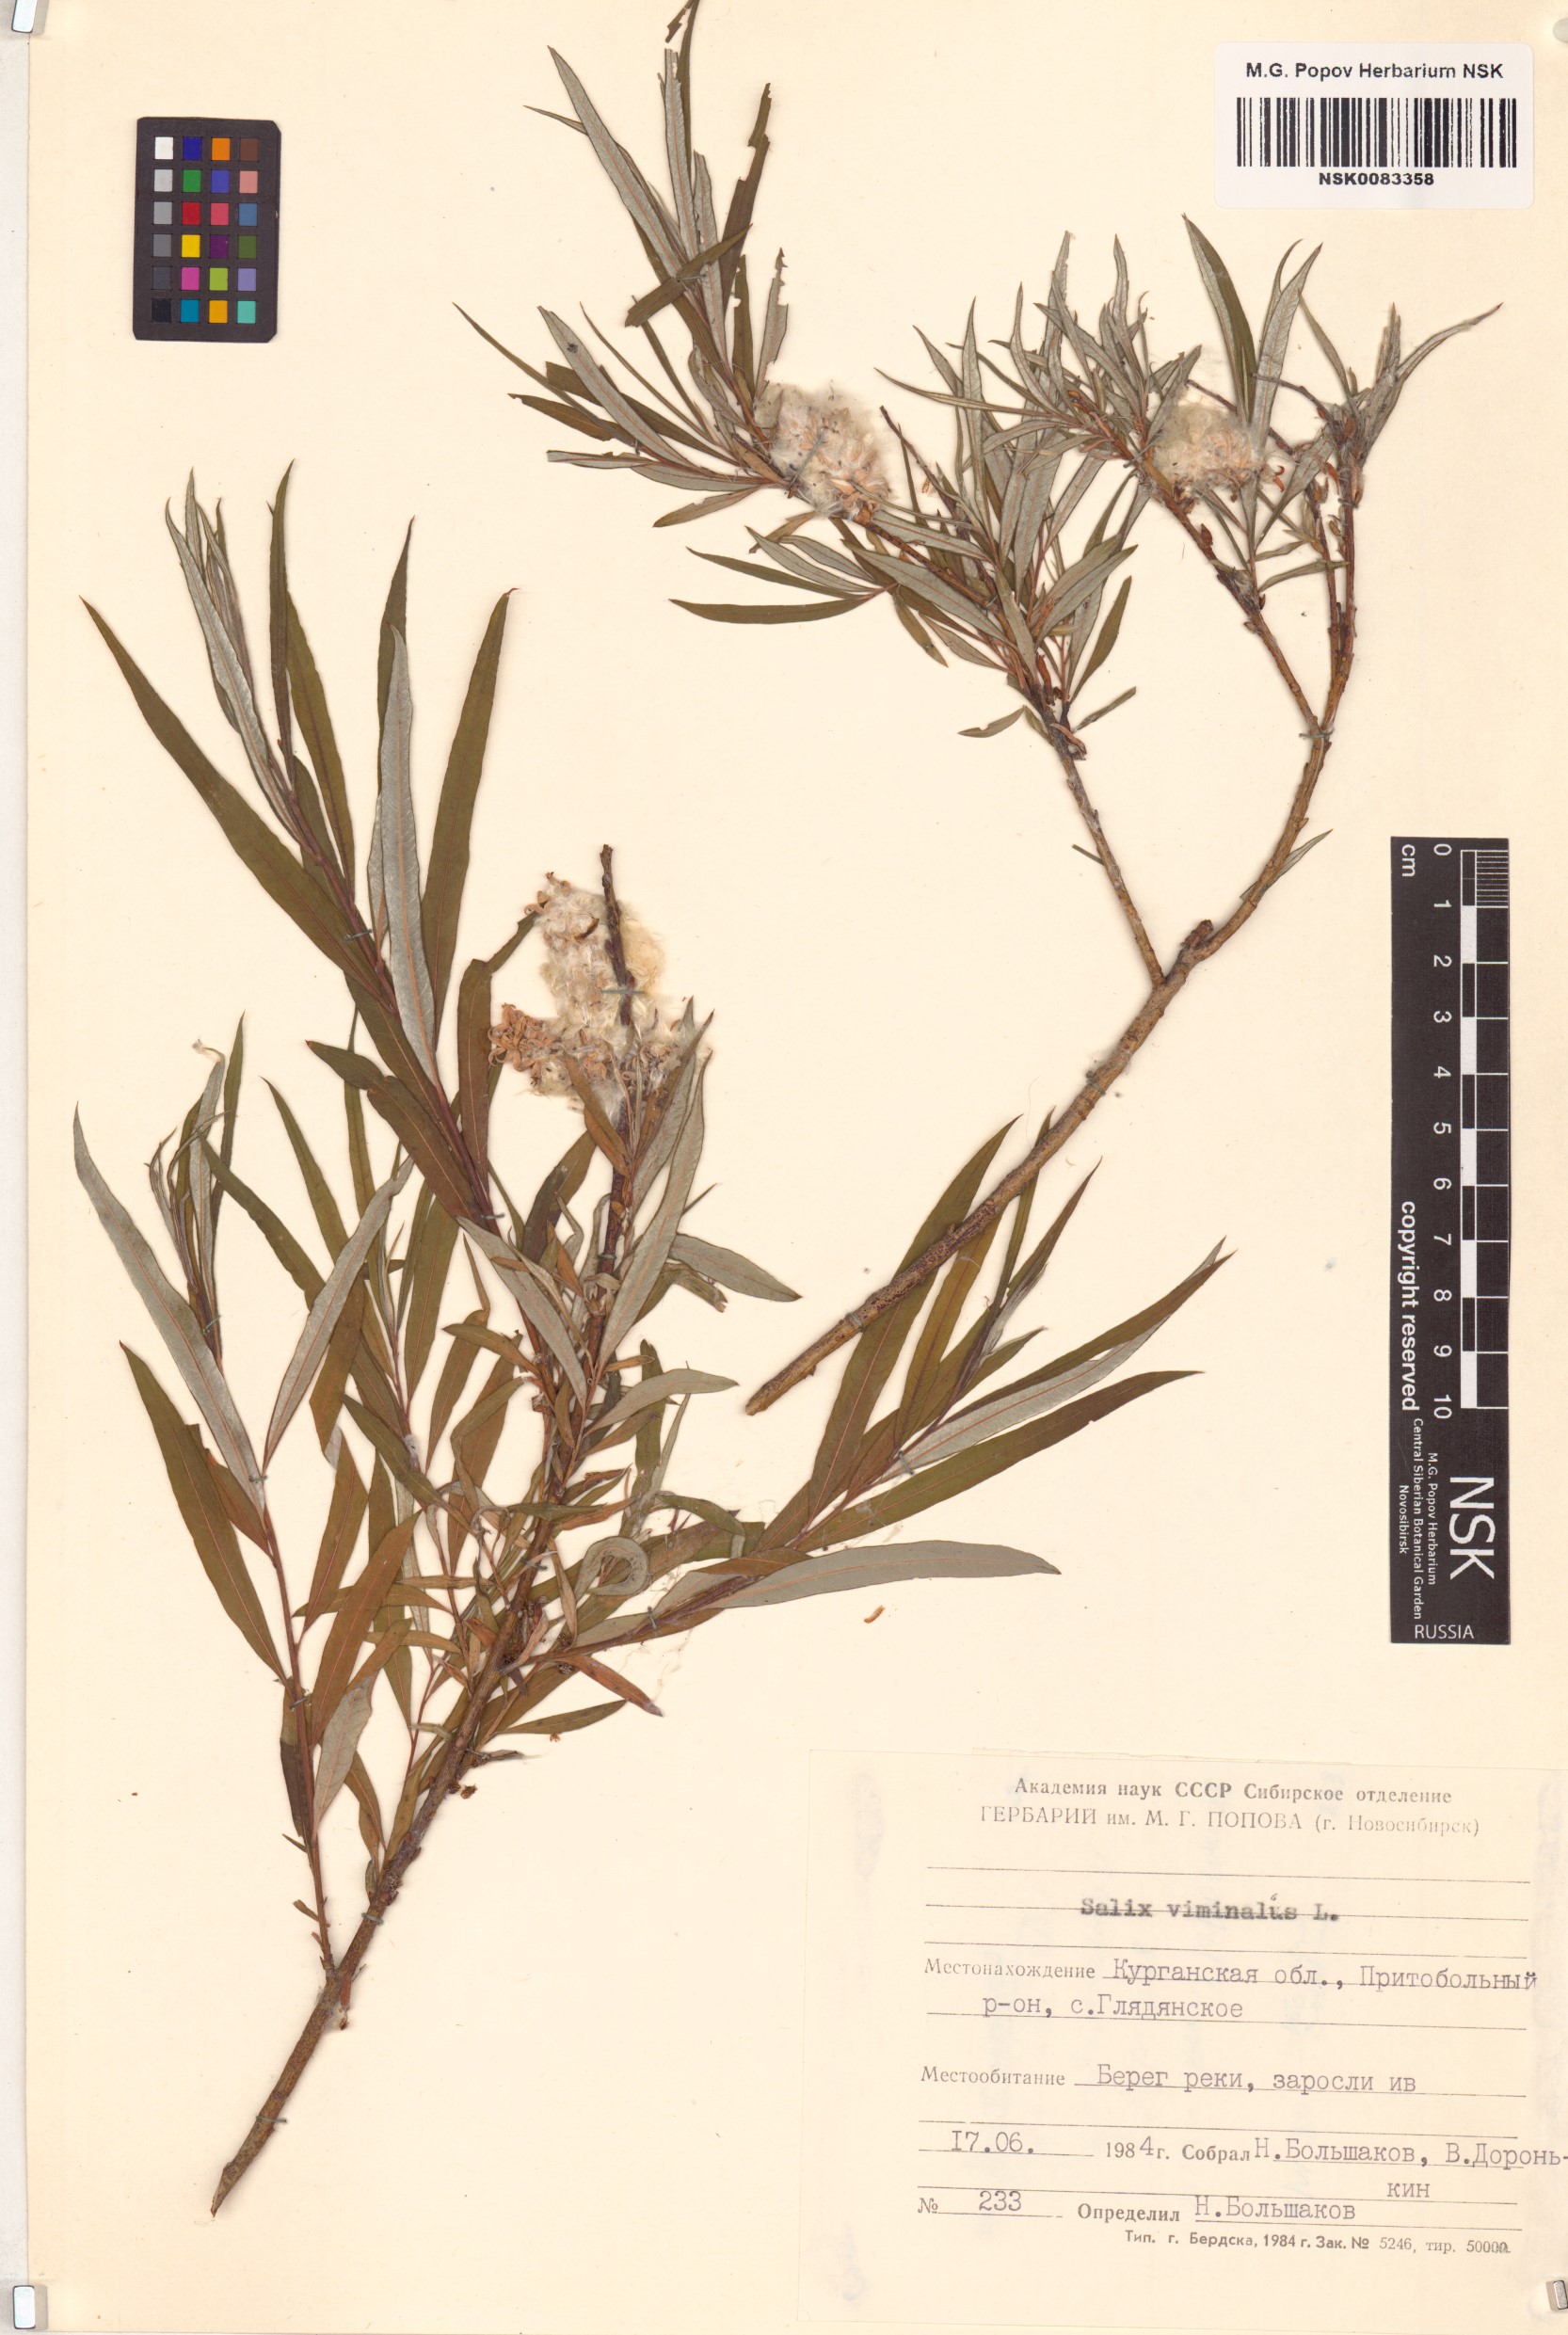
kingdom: Plantae
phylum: Tracheophyta
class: Magnoliopsida
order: Malpighiales
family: Salicaceae
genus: Salix
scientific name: Salix viminalis
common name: Osier
